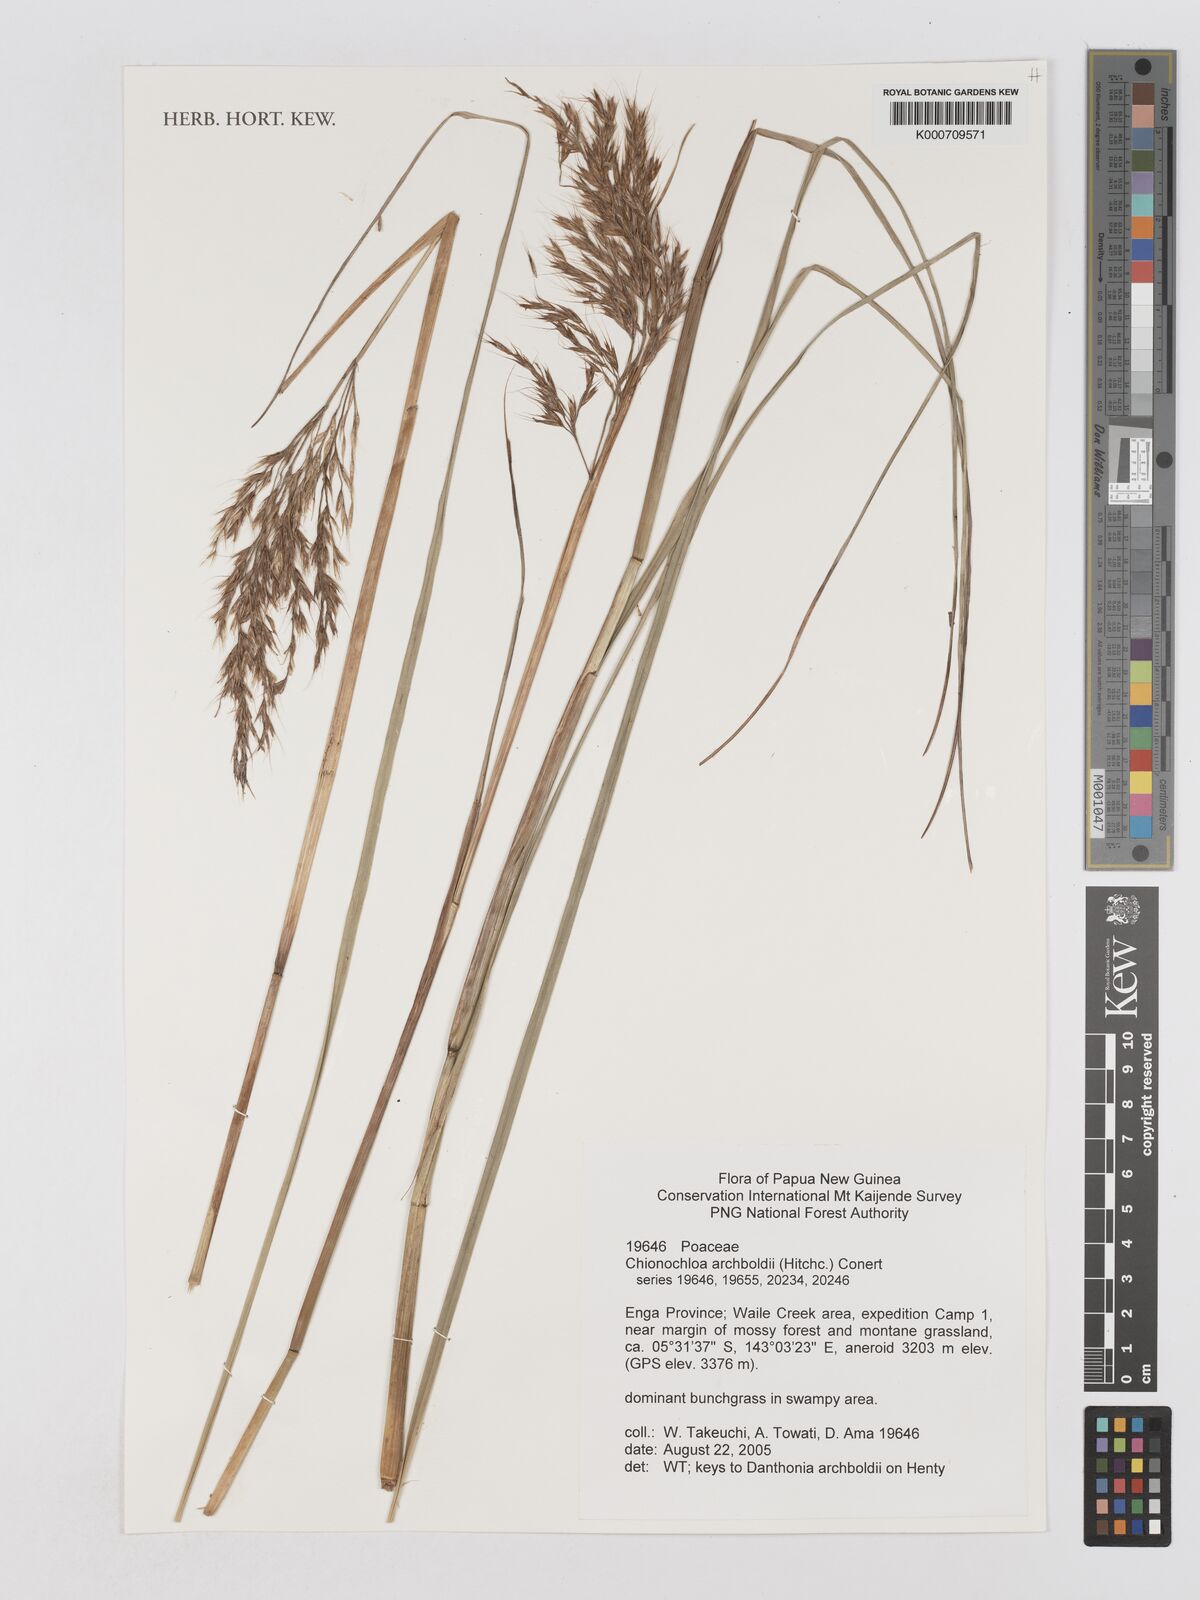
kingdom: Plantae
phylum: Tracheophyta
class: Liliopsida
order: Poales
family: Poaceae
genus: Chimaerochloa
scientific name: Chimaerochloa archboldii
